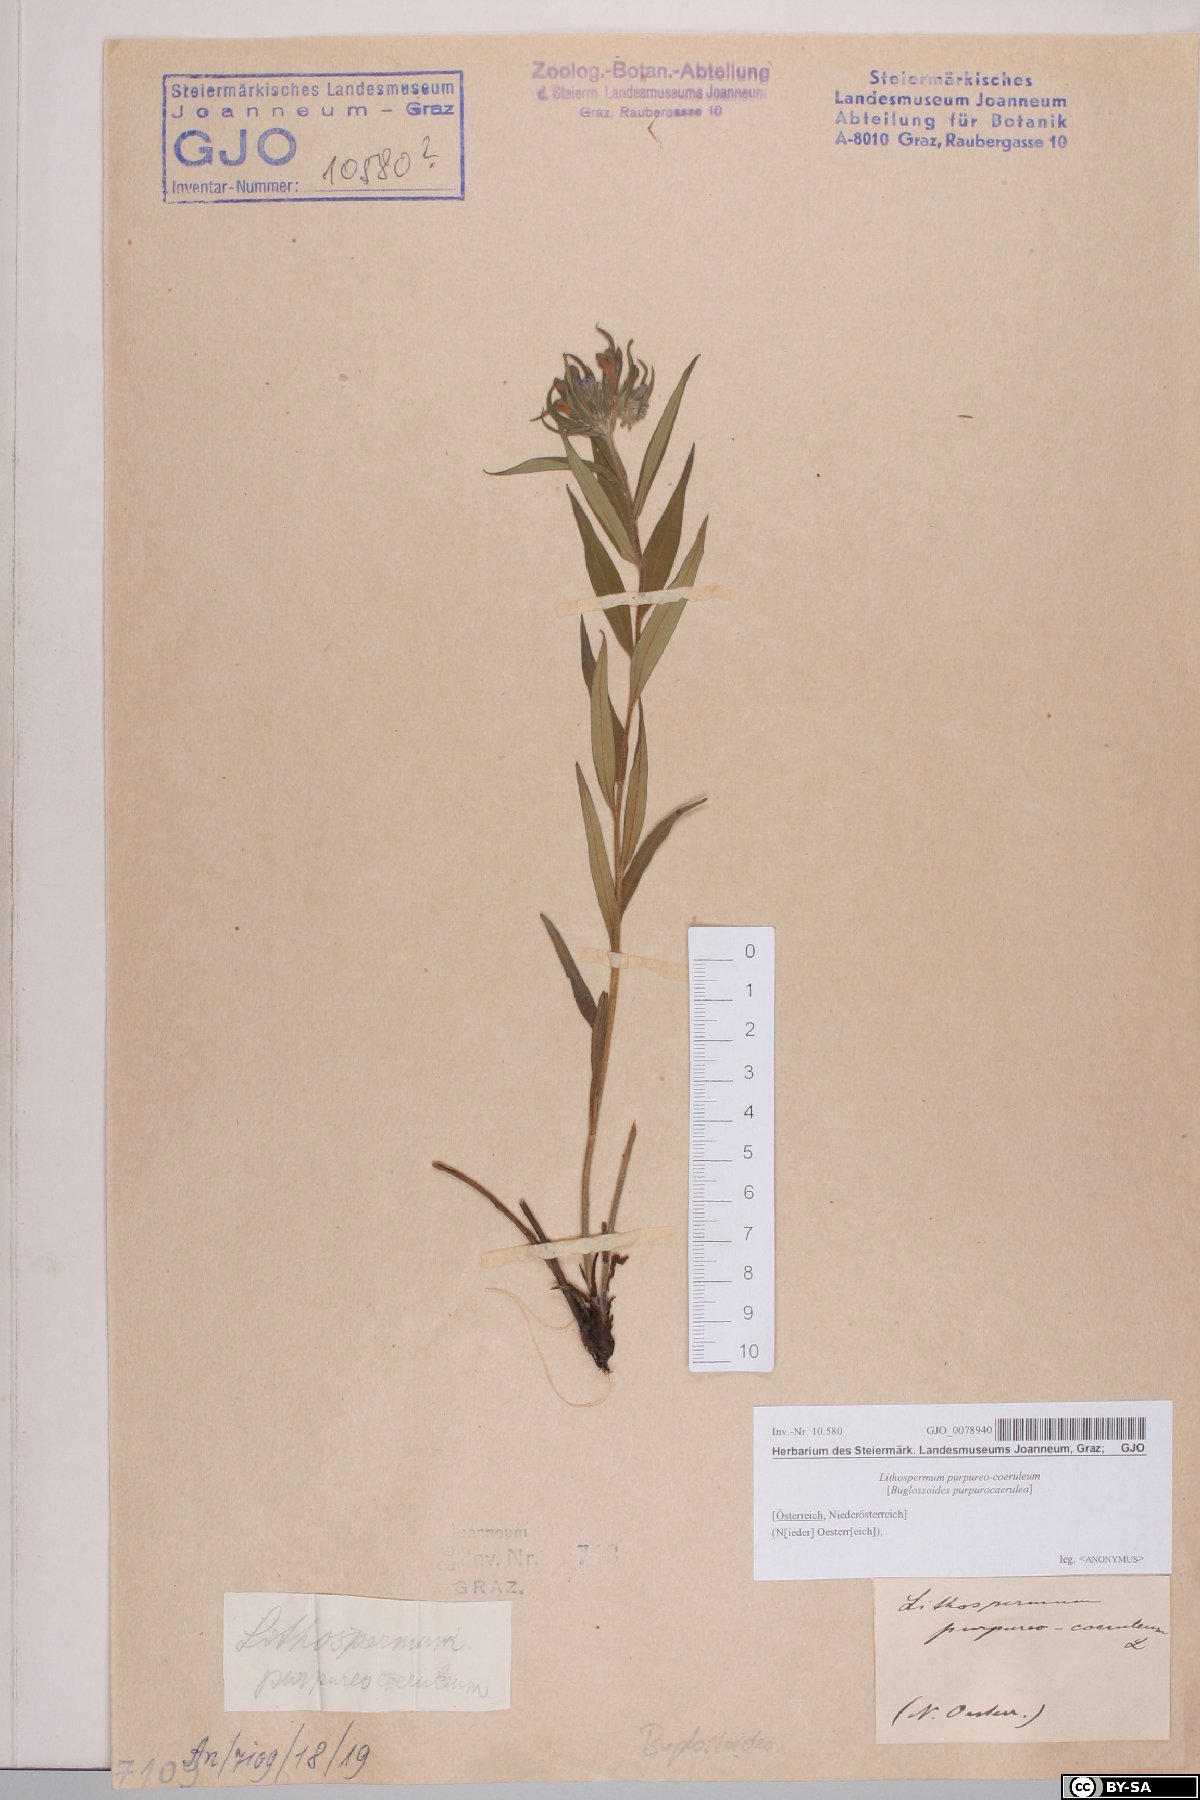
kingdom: Plantae
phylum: Tracheophyta
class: Magnoliopsida
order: Boraginales
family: Boraginaceae
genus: Aegonychon
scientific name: Aegonychon purpurocaeruleum
